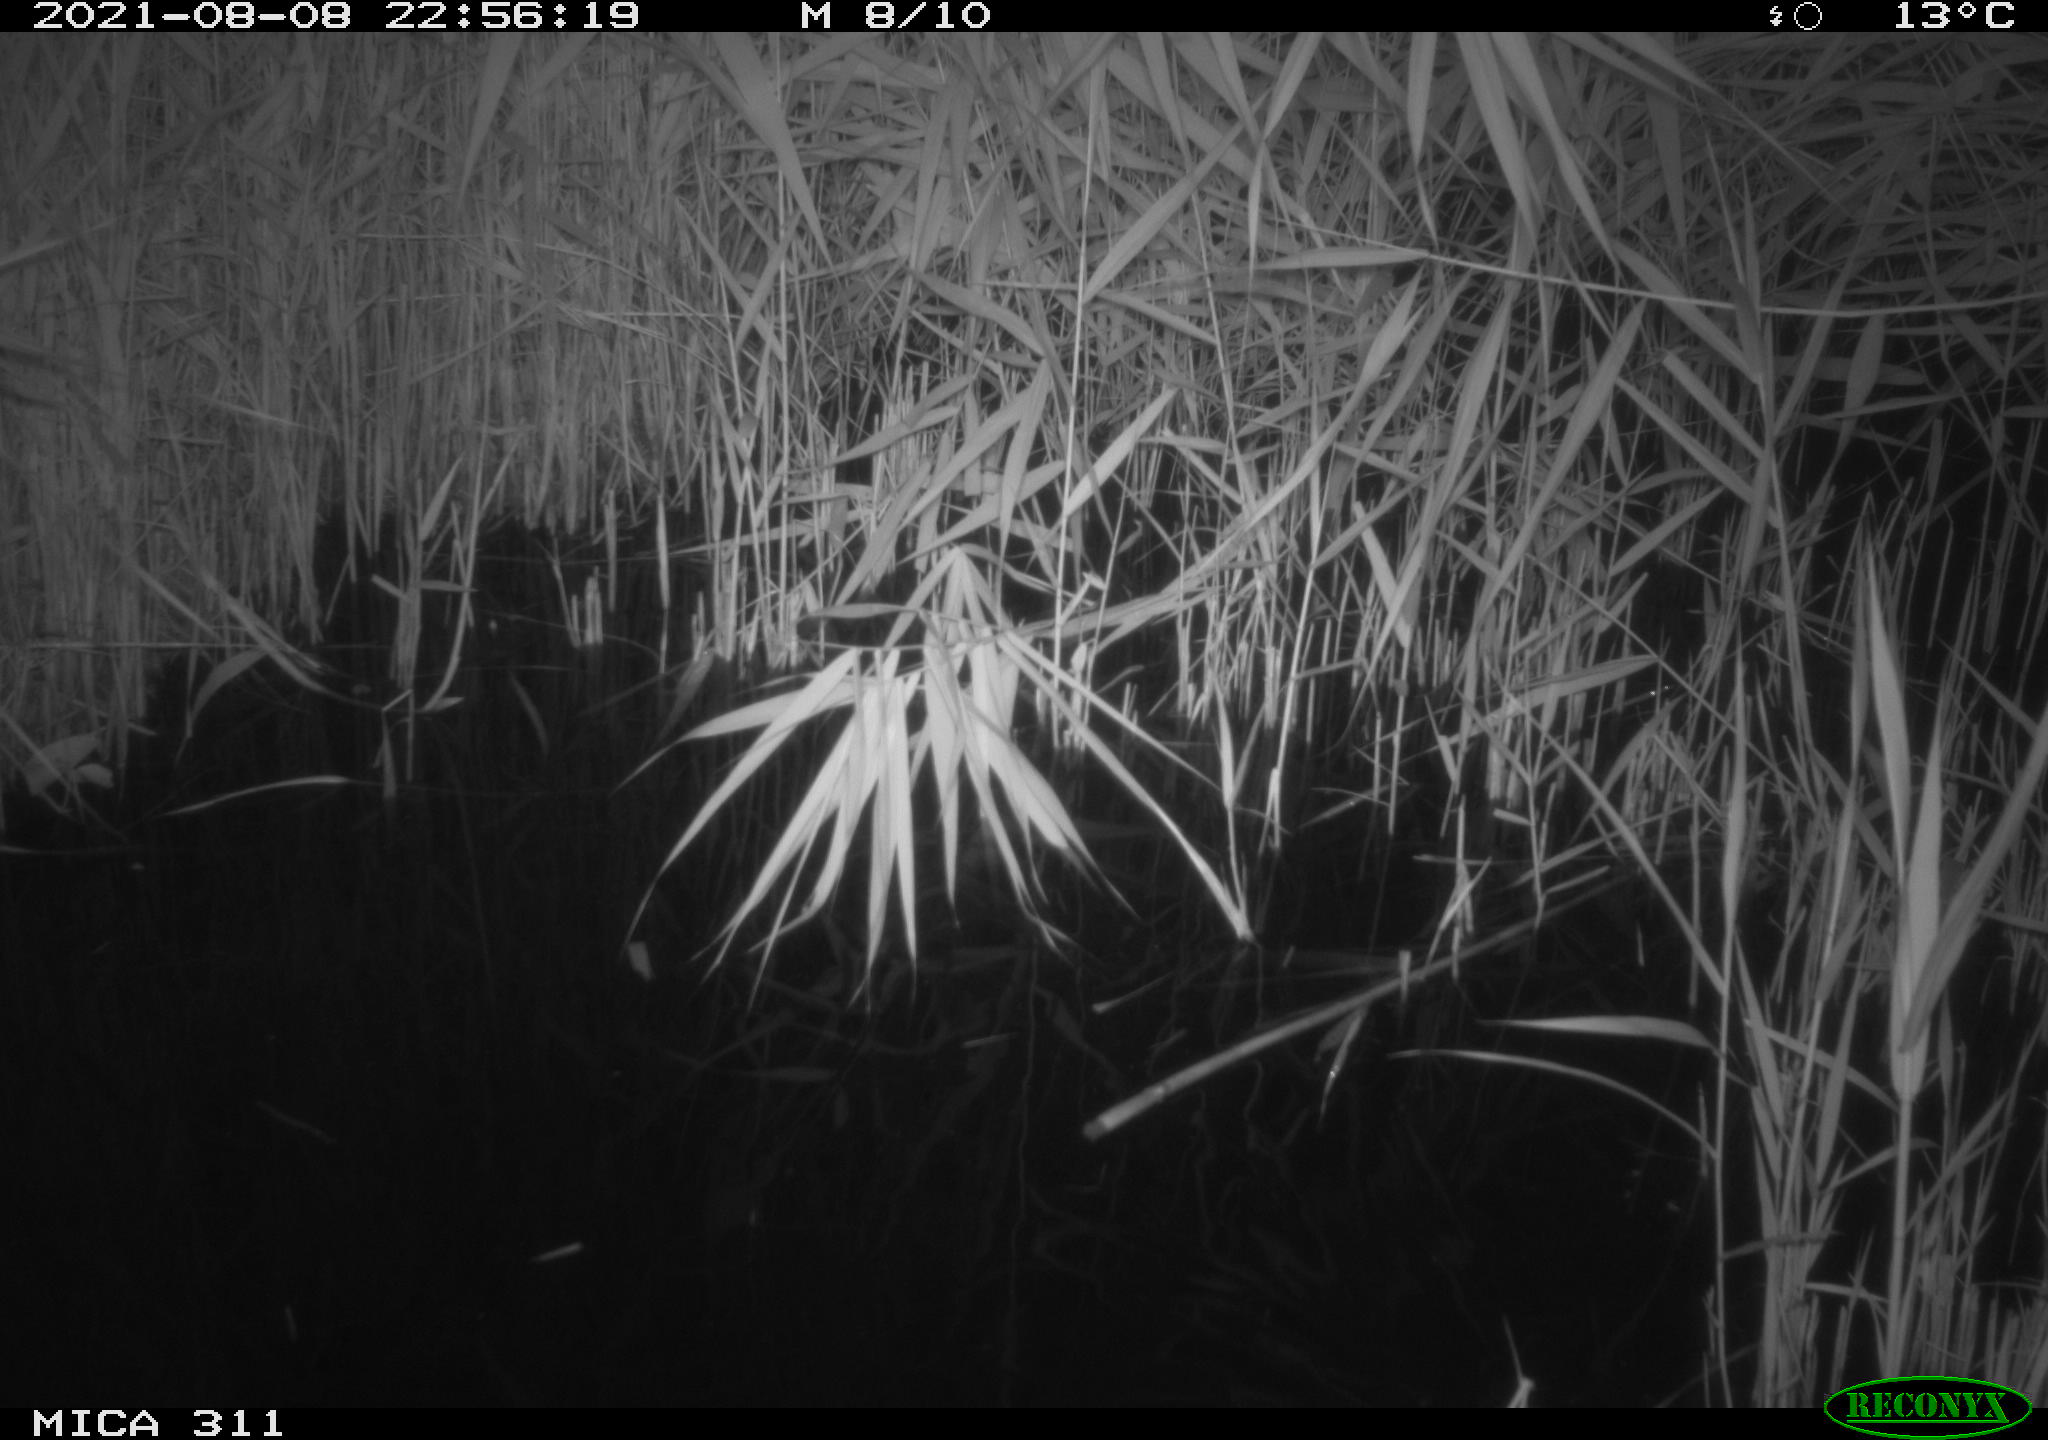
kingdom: Animalia
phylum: Chordata
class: Mammalia
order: Rodentia
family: Muridae
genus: Rattus
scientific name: Rattus norvegicus
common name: Brown rat
